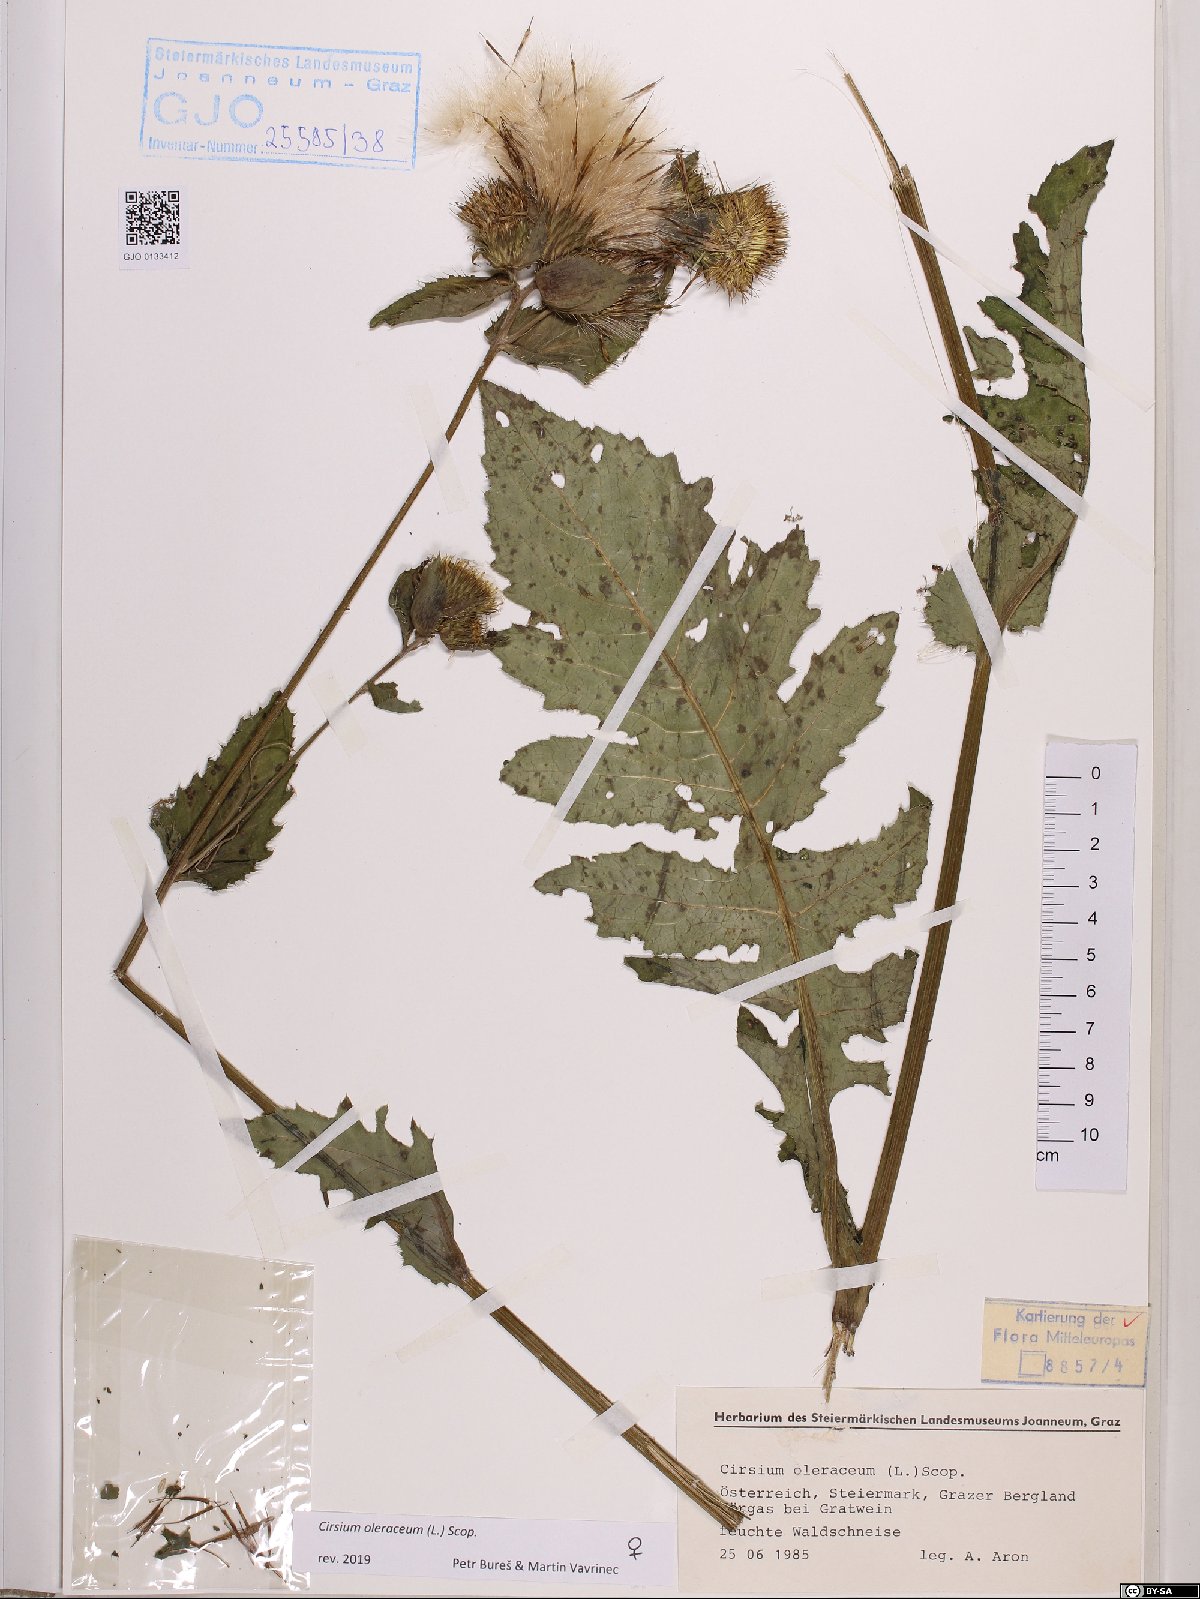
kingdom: Plantae
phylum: Tracheophyta
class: Magnoliopsida
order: Asterales
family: Asteraceae
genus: Cirsium
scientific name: Cirsium oleraceum
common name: Cabbage thistle
